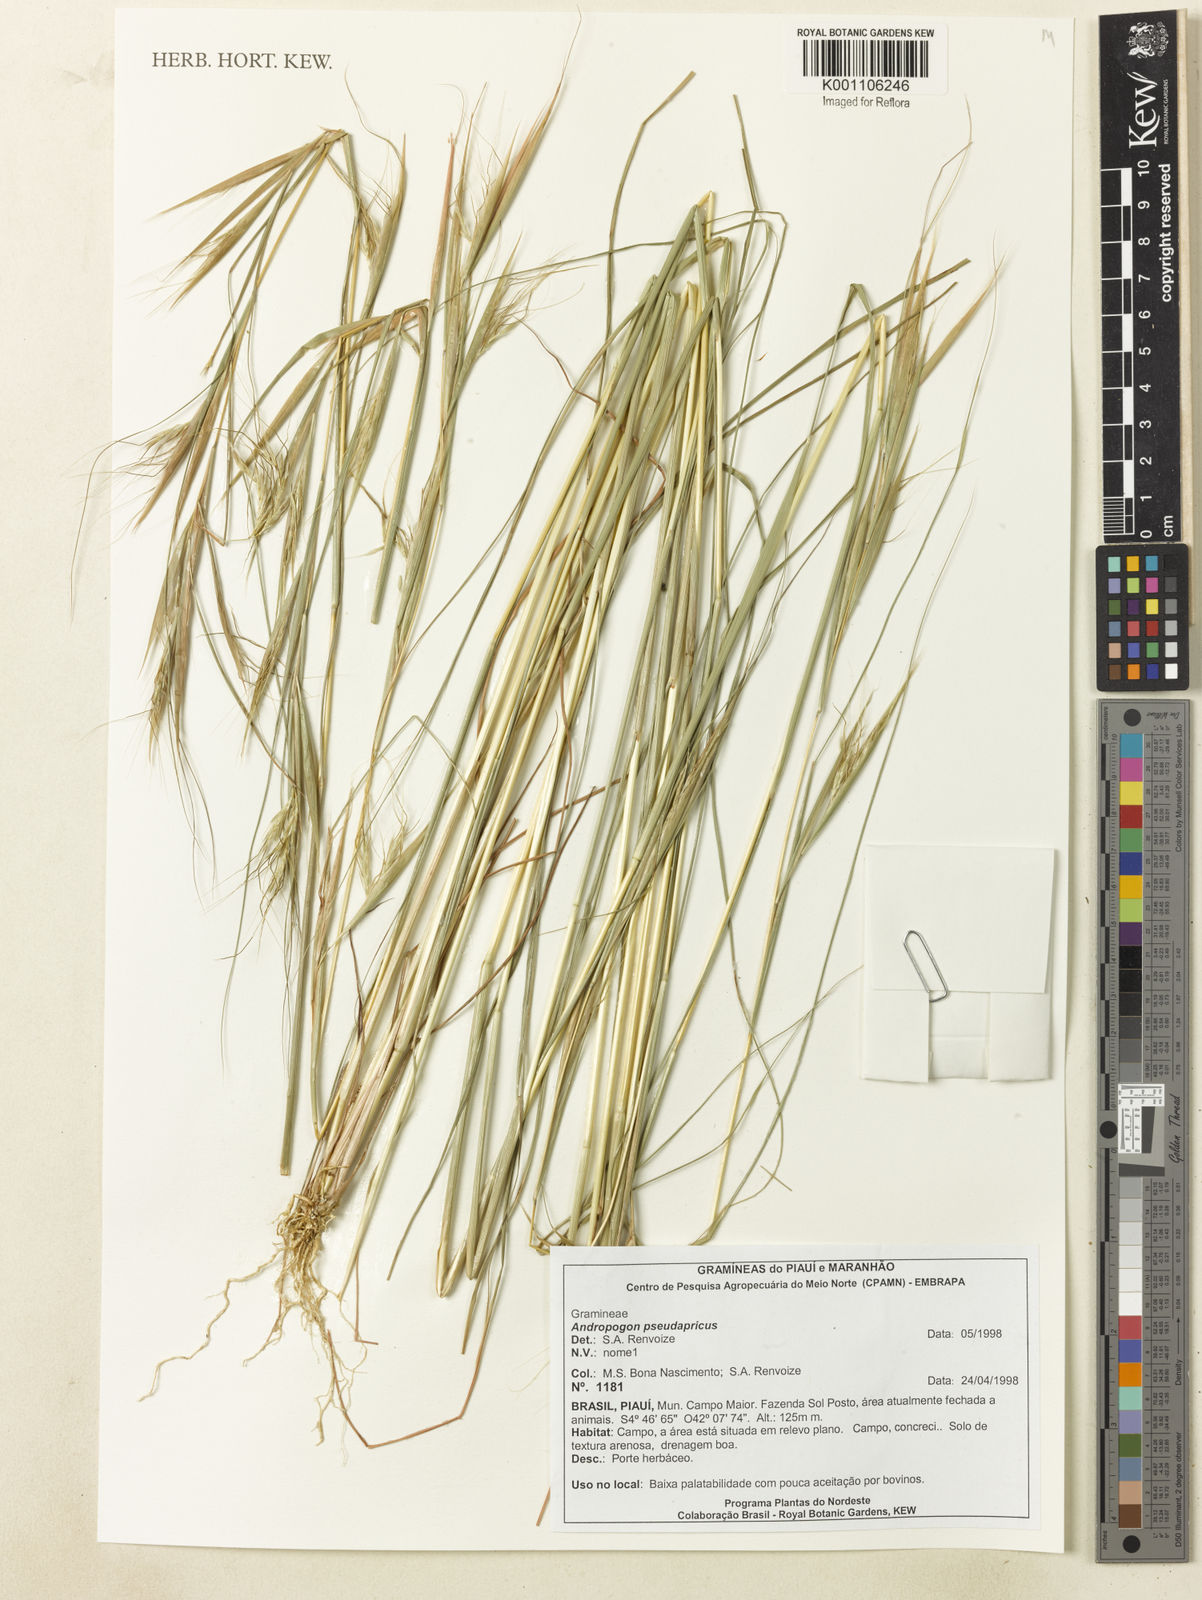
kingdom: Plantae
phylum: Tracheophyta
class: Liliopsida
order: Poales
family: Poaceae
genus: Andropogon
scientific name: Andropogon pseudapricus
